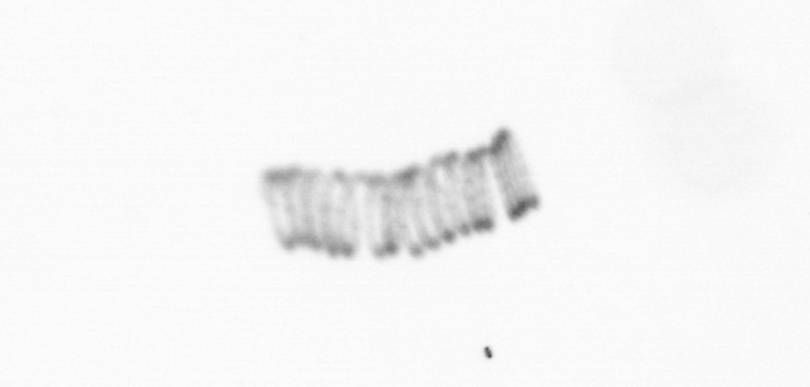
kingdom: Chromista
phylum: Ochrophyta
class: Bacillariophyceae
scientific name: Bacillariophyceae
